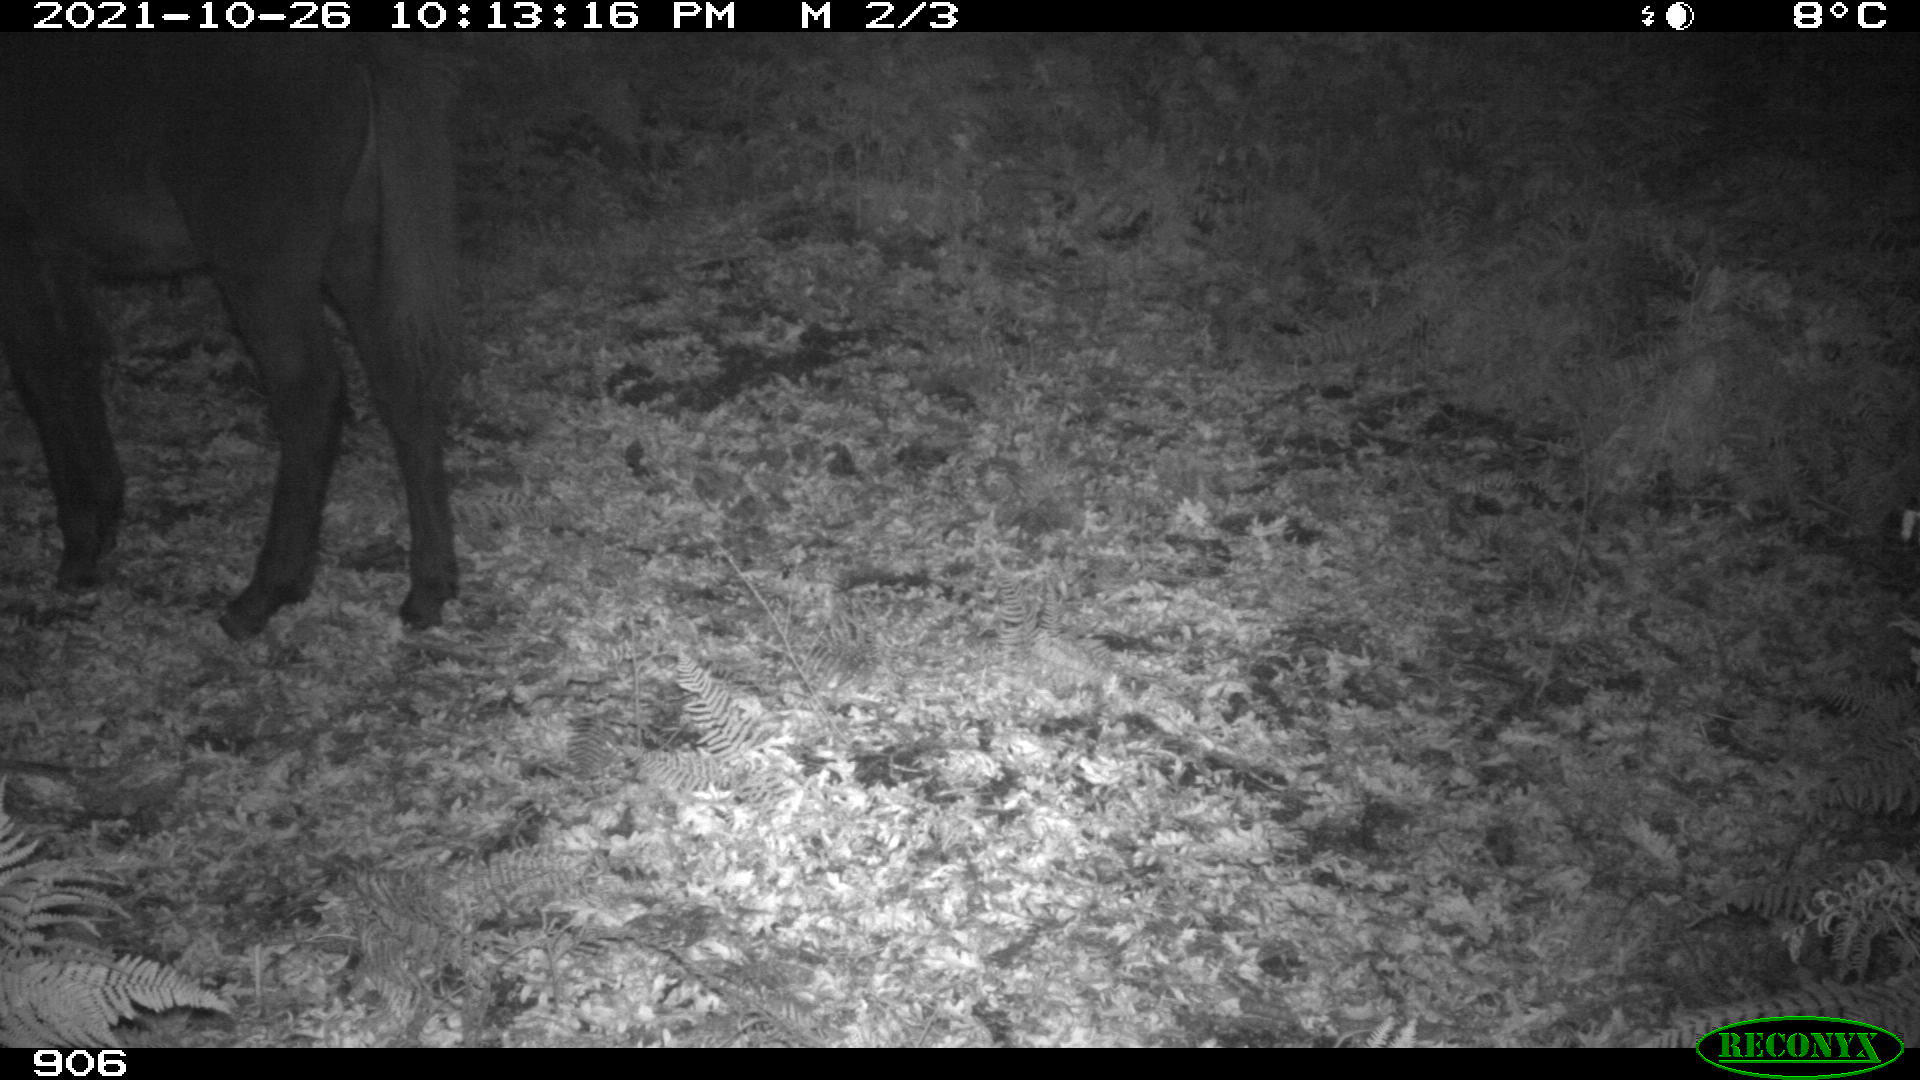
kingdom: Animalia
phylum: Chordata
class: Mammalia
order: Perissodactyla
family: Equidae
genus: Equus
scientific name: Equus caballus
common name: Horse
